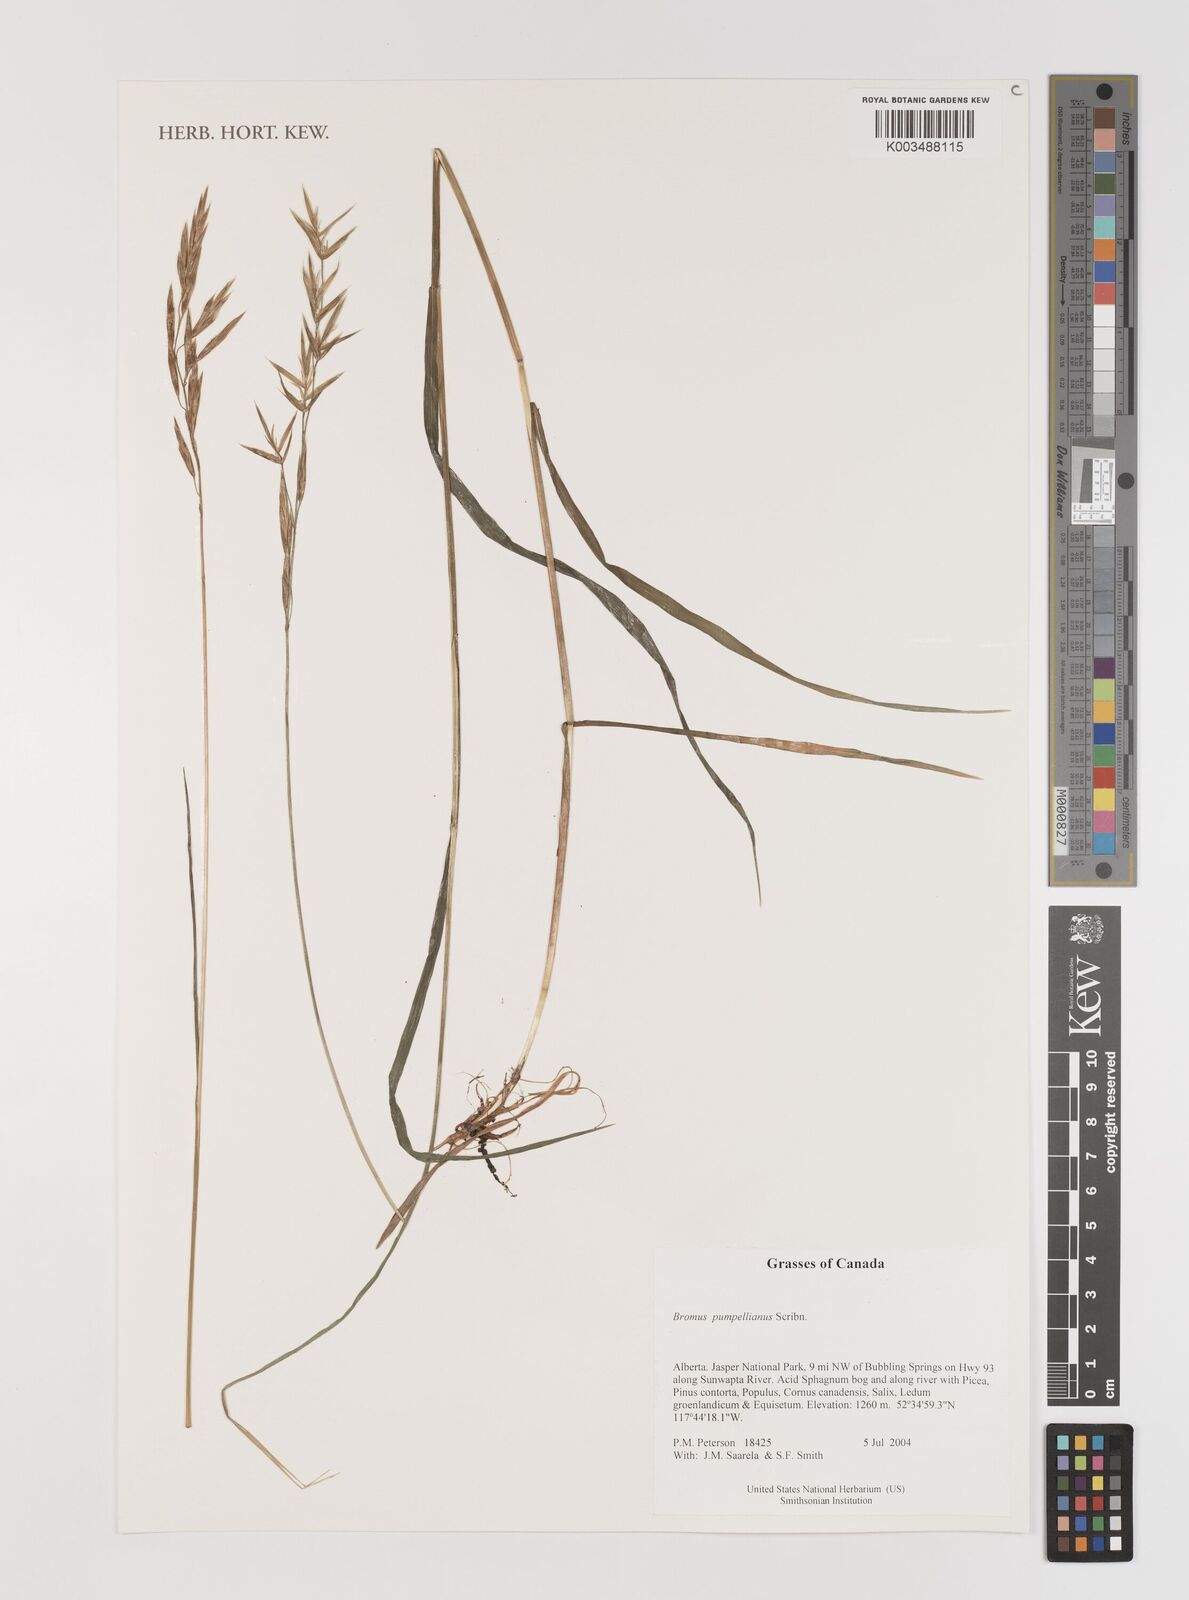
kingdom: Plantae
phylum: Tracheophyta
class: Liliopsida
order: Poales
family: Poaceae
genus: Bromus
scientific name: Bromus pumpellianus
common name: Pumpelly's brome
